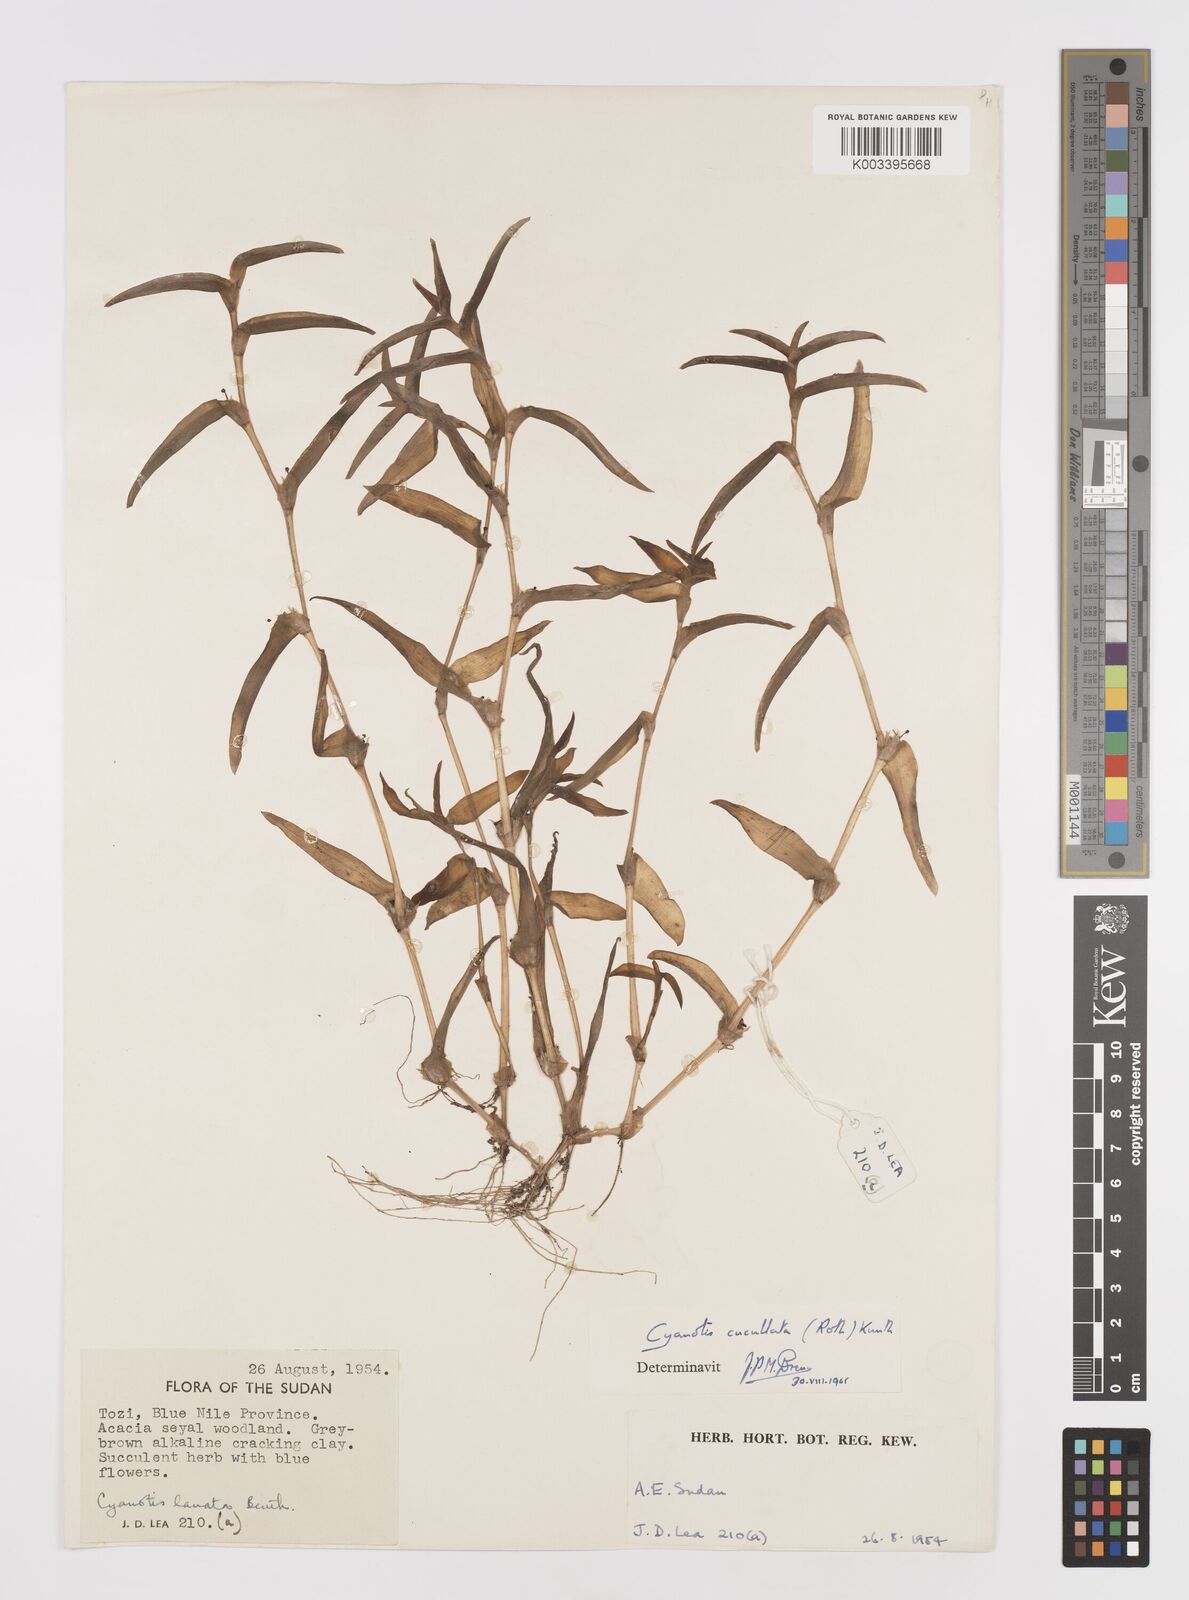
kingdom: Plantae
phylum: Tracheophyta
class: Liliopsida
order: Commelinales
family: Commelinaceae
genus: Cyanotis
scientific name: Cyanotis cucullata
